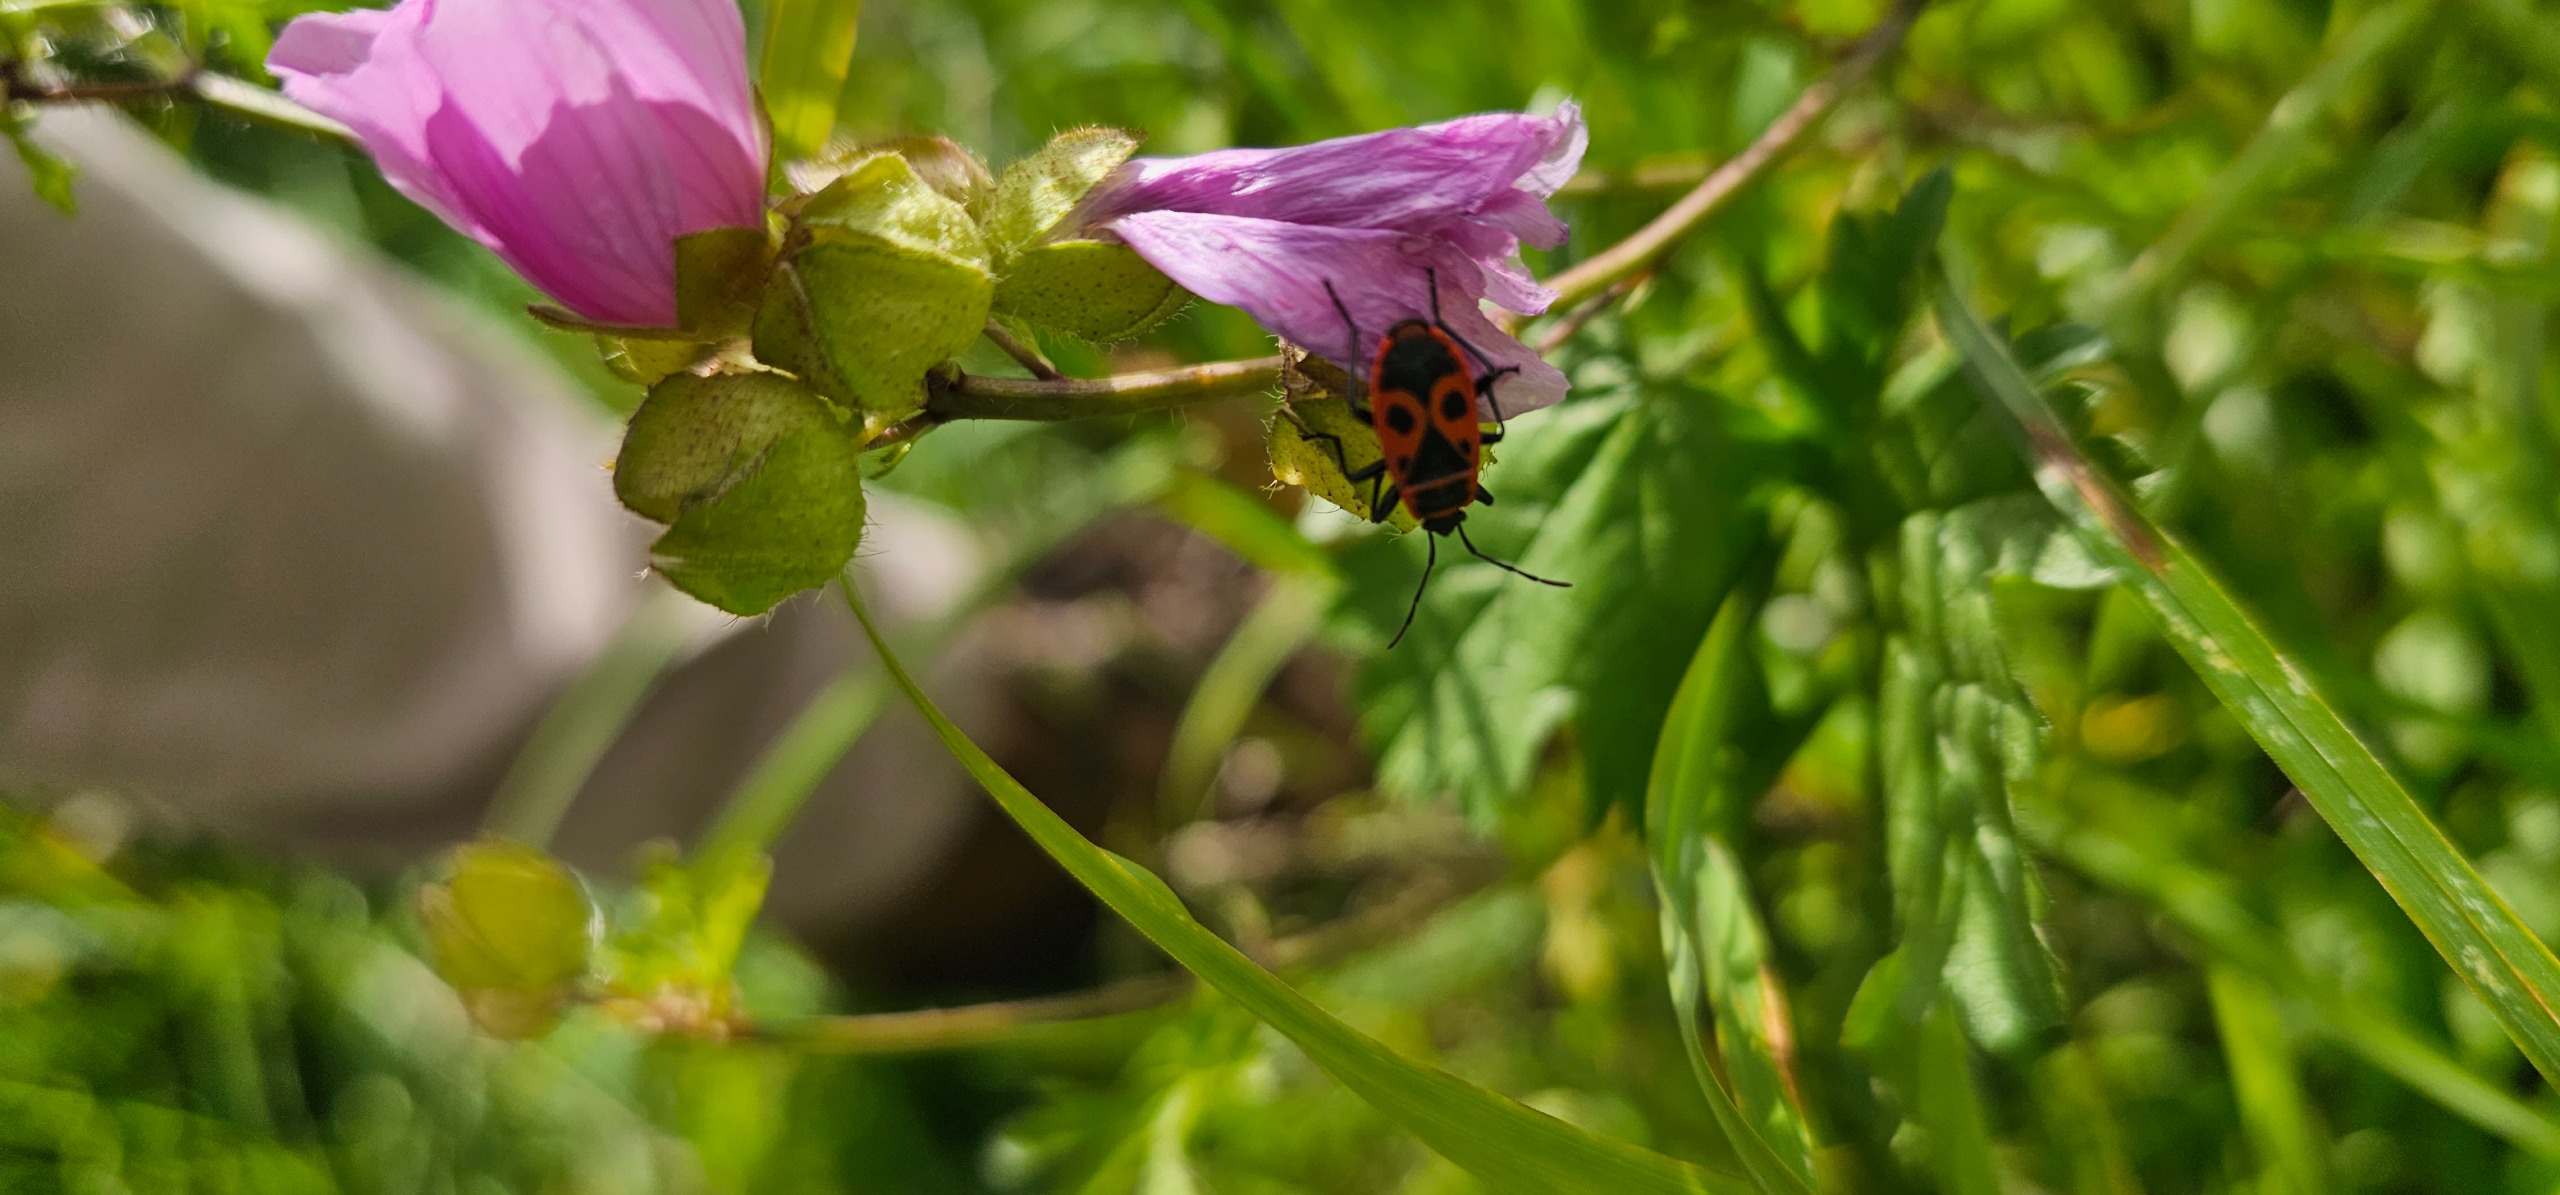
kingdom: Animalia
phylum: Arthropoda
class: Insecta
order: Hemiptera
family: Pyrrhocoridae
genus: Pyrrhocoris
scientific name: Pyrrhocoris apterus
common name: Ildtæge
